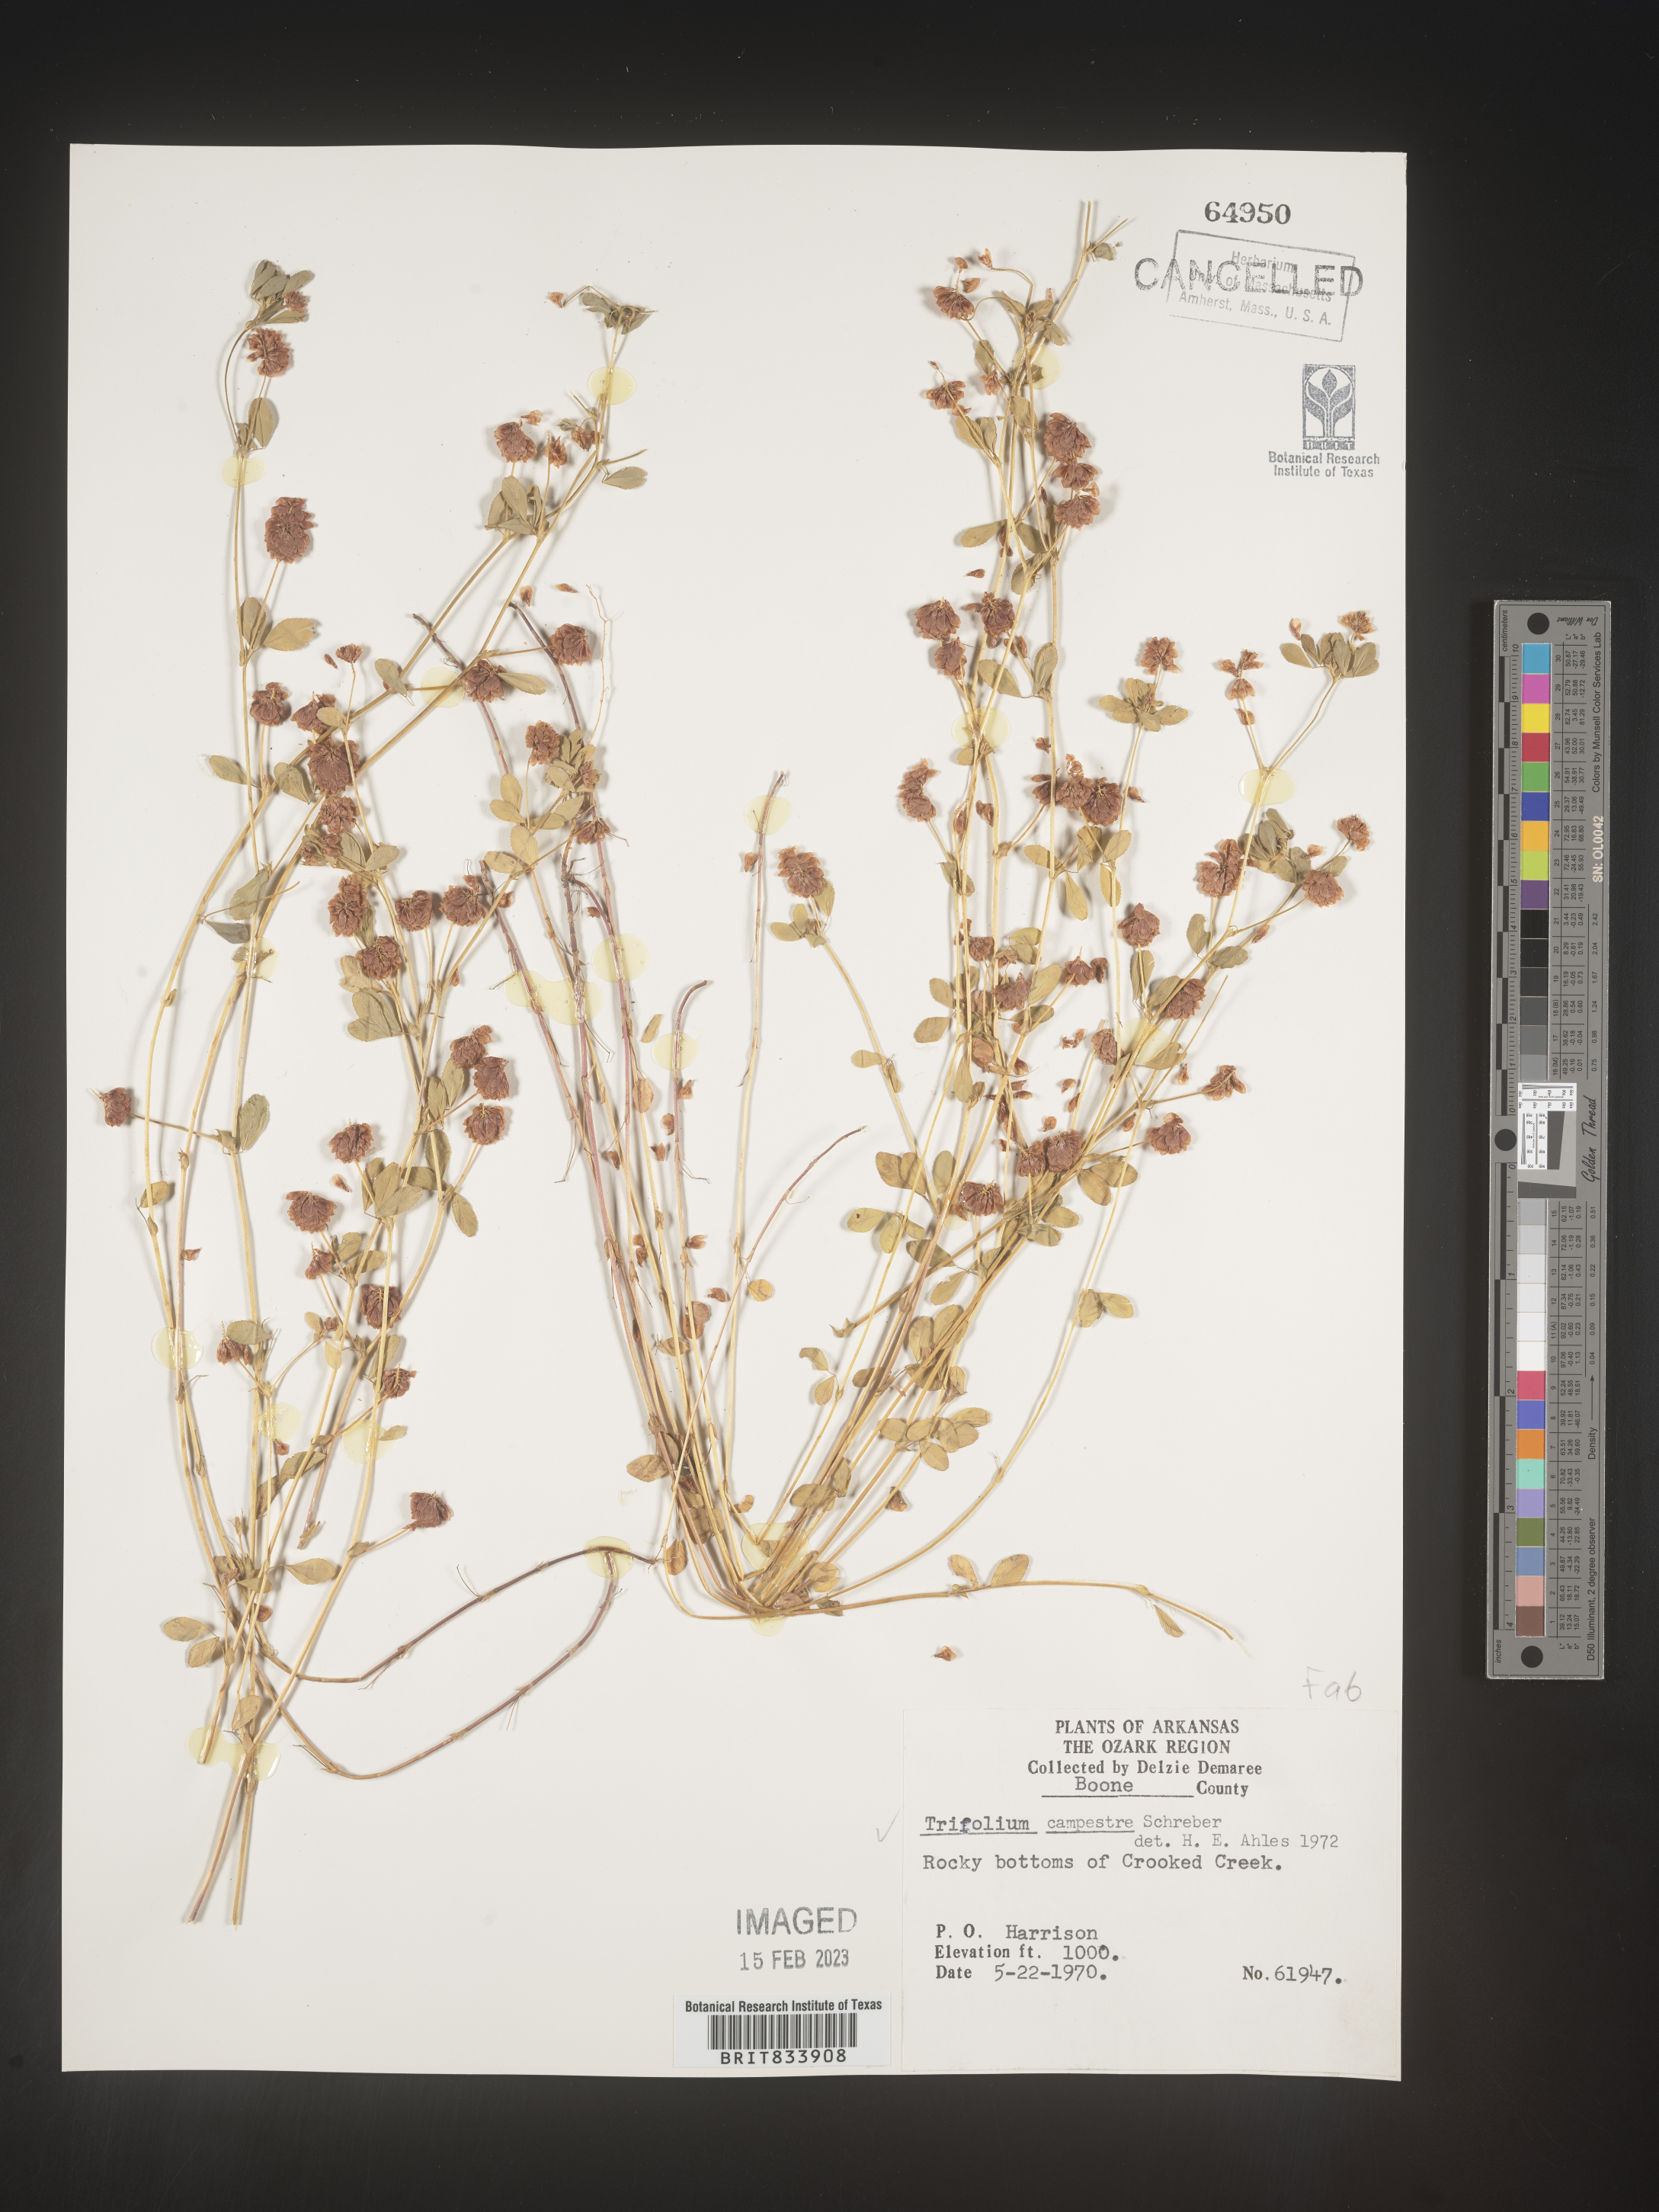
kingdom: Plantae
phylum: Tracheophyta
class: Magnoliopsida
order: Fabales
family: Fabaceae
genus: Trifolium
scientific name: Trifolium campestre
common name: Field clover
